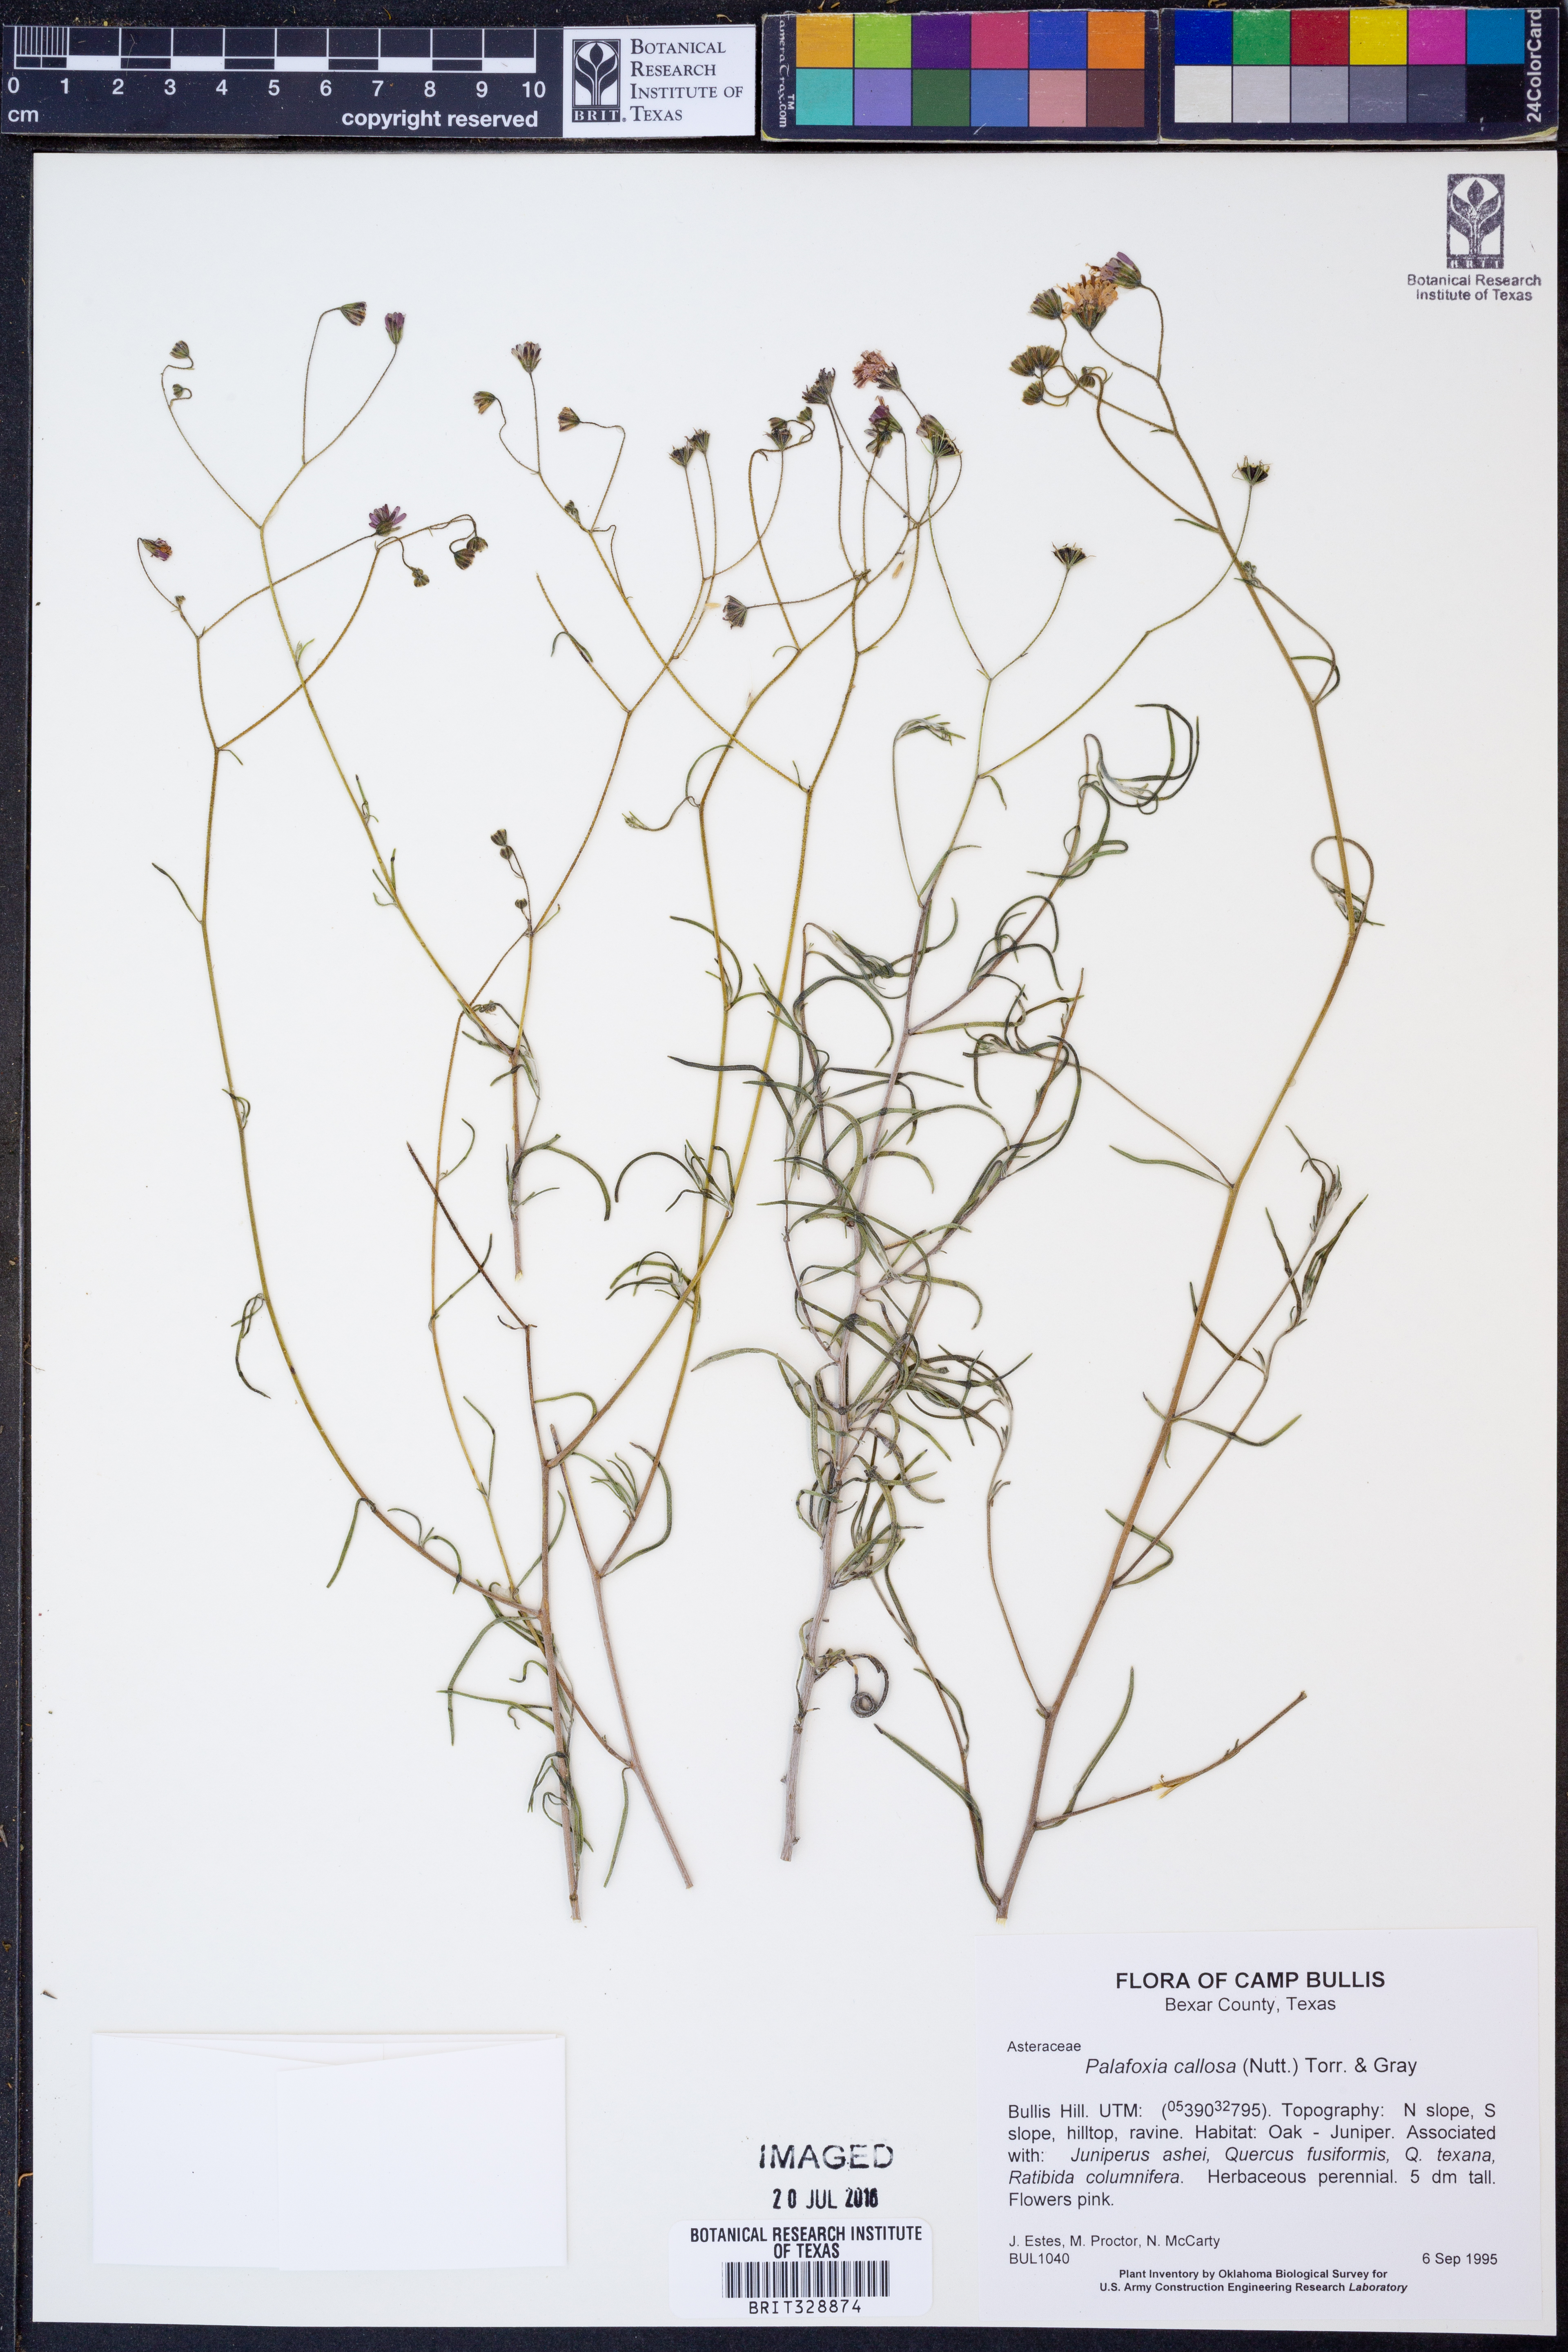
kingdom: Plantae
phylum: Tracheophyta
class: Magnoliopsida
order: Asterales
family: Asteraceae
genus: Palafoxia
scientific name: Palafoxia callosa
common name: Small palafox
